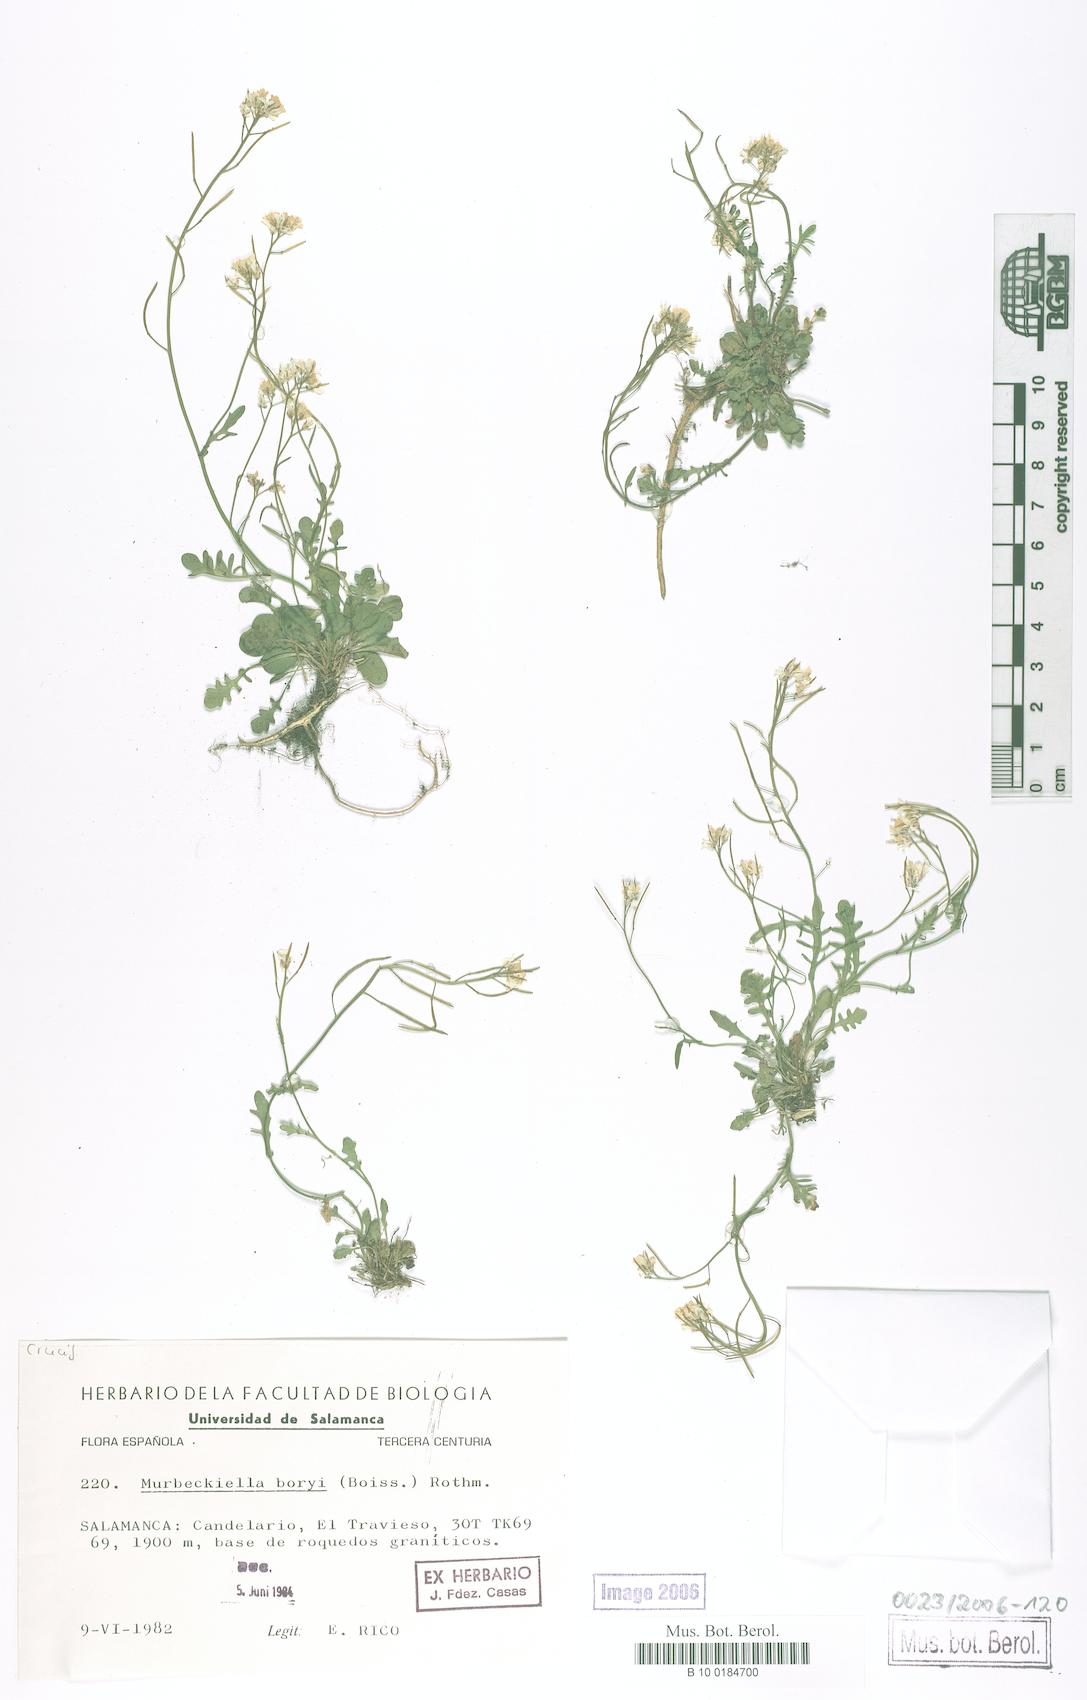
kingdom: Plantae
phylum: Tracheophyta
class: Magnoliopsida
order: Brassicales
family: Brassicaceae
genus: Murbeckiella
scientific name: Murbeckiella boryi
